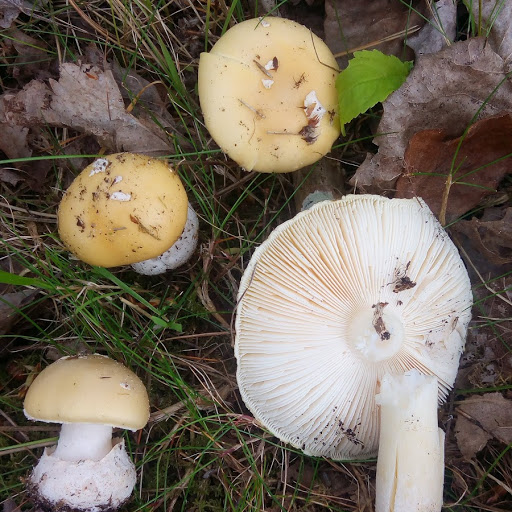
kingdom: Fungi
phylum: Basidiomycota
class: Agaricomycetes
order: Agaricales
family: Amanitaceae
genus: Amanita
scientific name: Amanita gemmata
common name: okkergul fluesvamp
